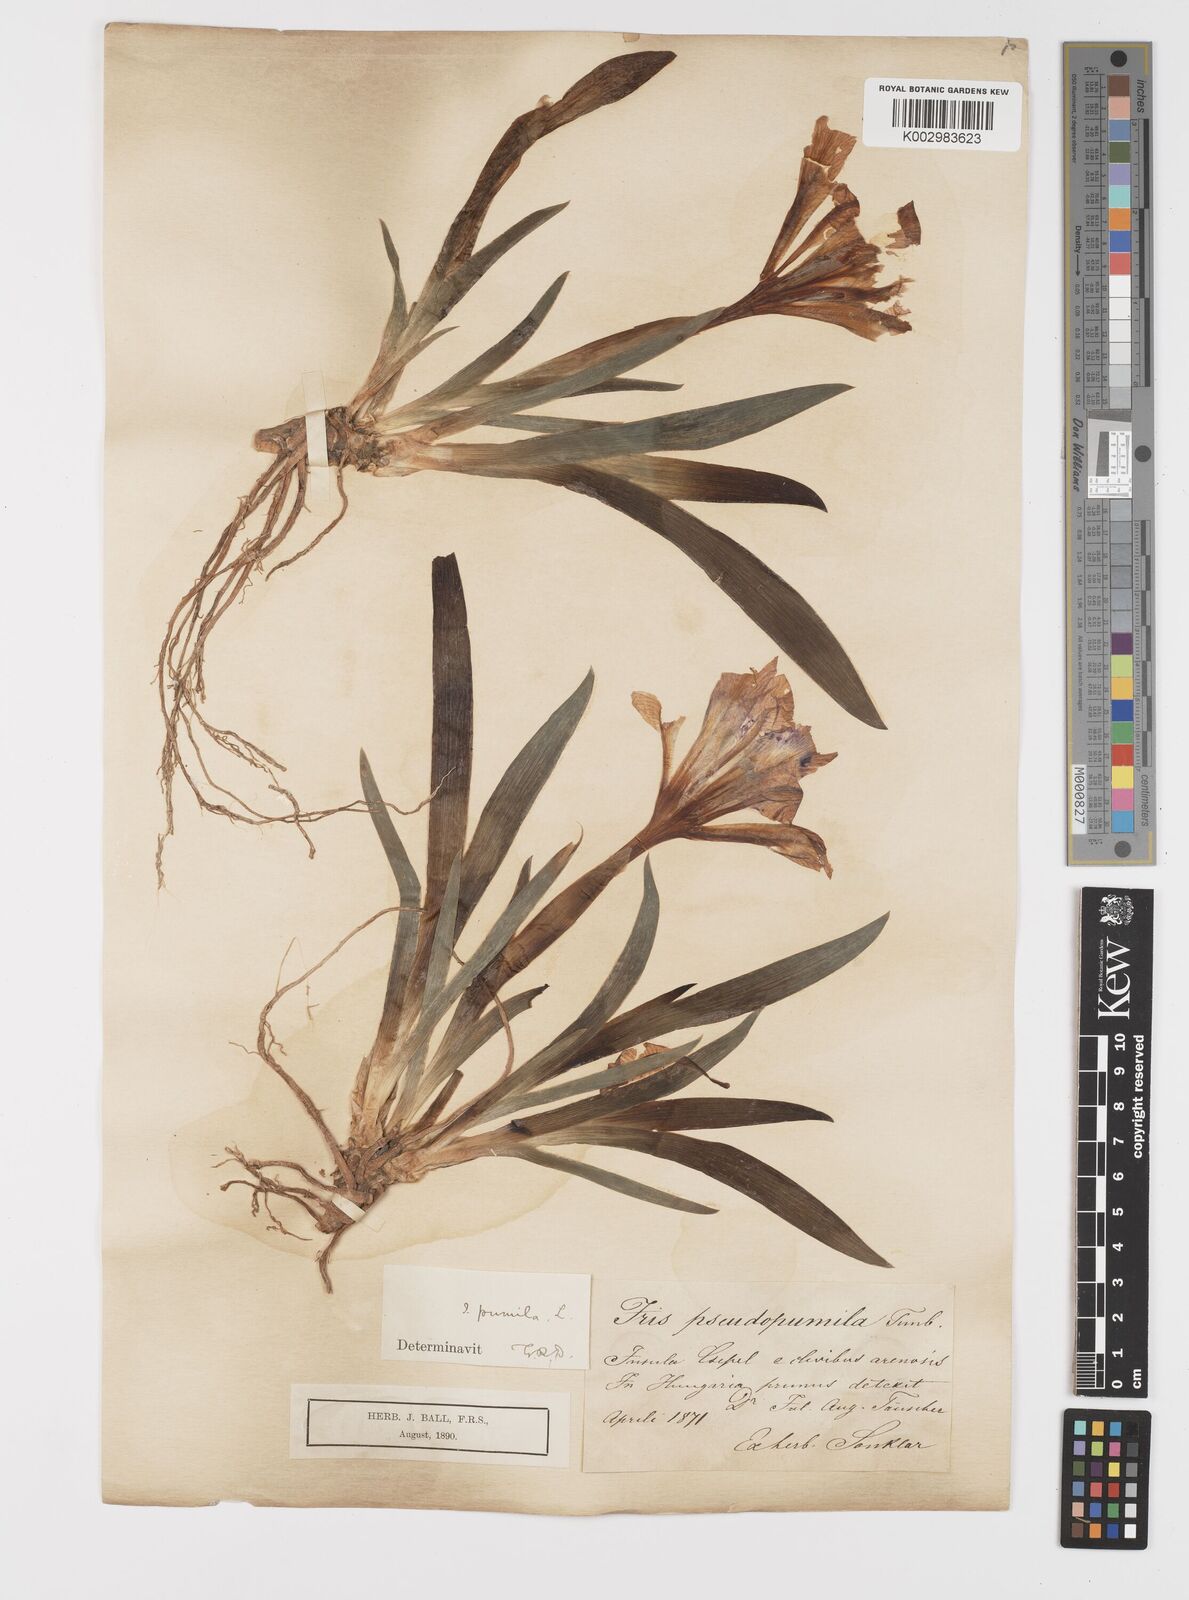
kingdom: Plantae
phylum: Tracheophyta
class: Liliopsida
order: Asparagales
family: Iridaceae
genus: Iris
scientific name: Iris pumila
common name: Dwarf iris
